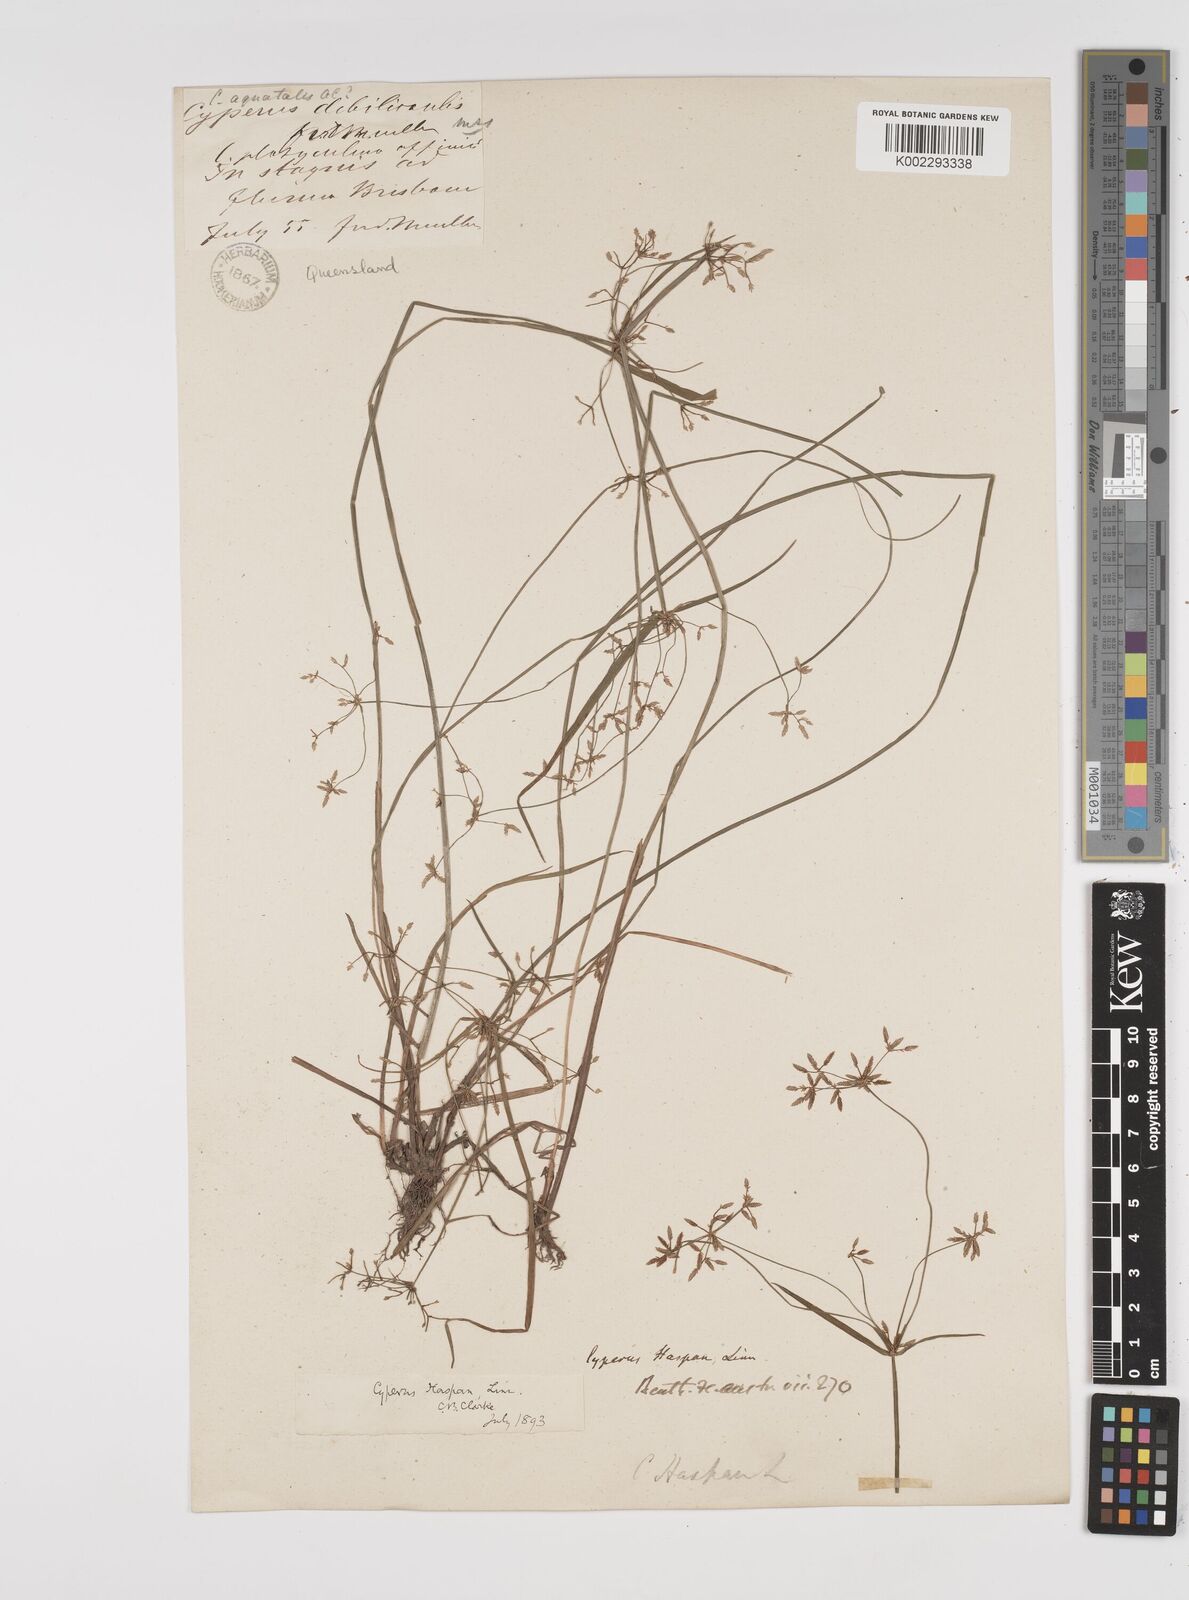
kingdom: Plantae
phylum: Tracheophyta
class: Liliopsida
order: Poales
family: Cyperaceae
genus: Cyperus
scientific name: Cyperus haspan
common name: Haspan flatsedge
